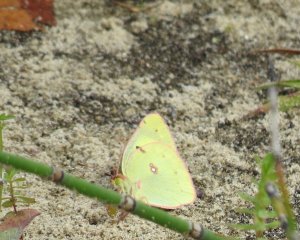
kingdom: Animalia
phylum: Arthropoda
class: Insecta
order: Lepidoptera
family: Pieridae
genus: Colias
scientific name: Colias philodice
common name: Clouded Sulphur
